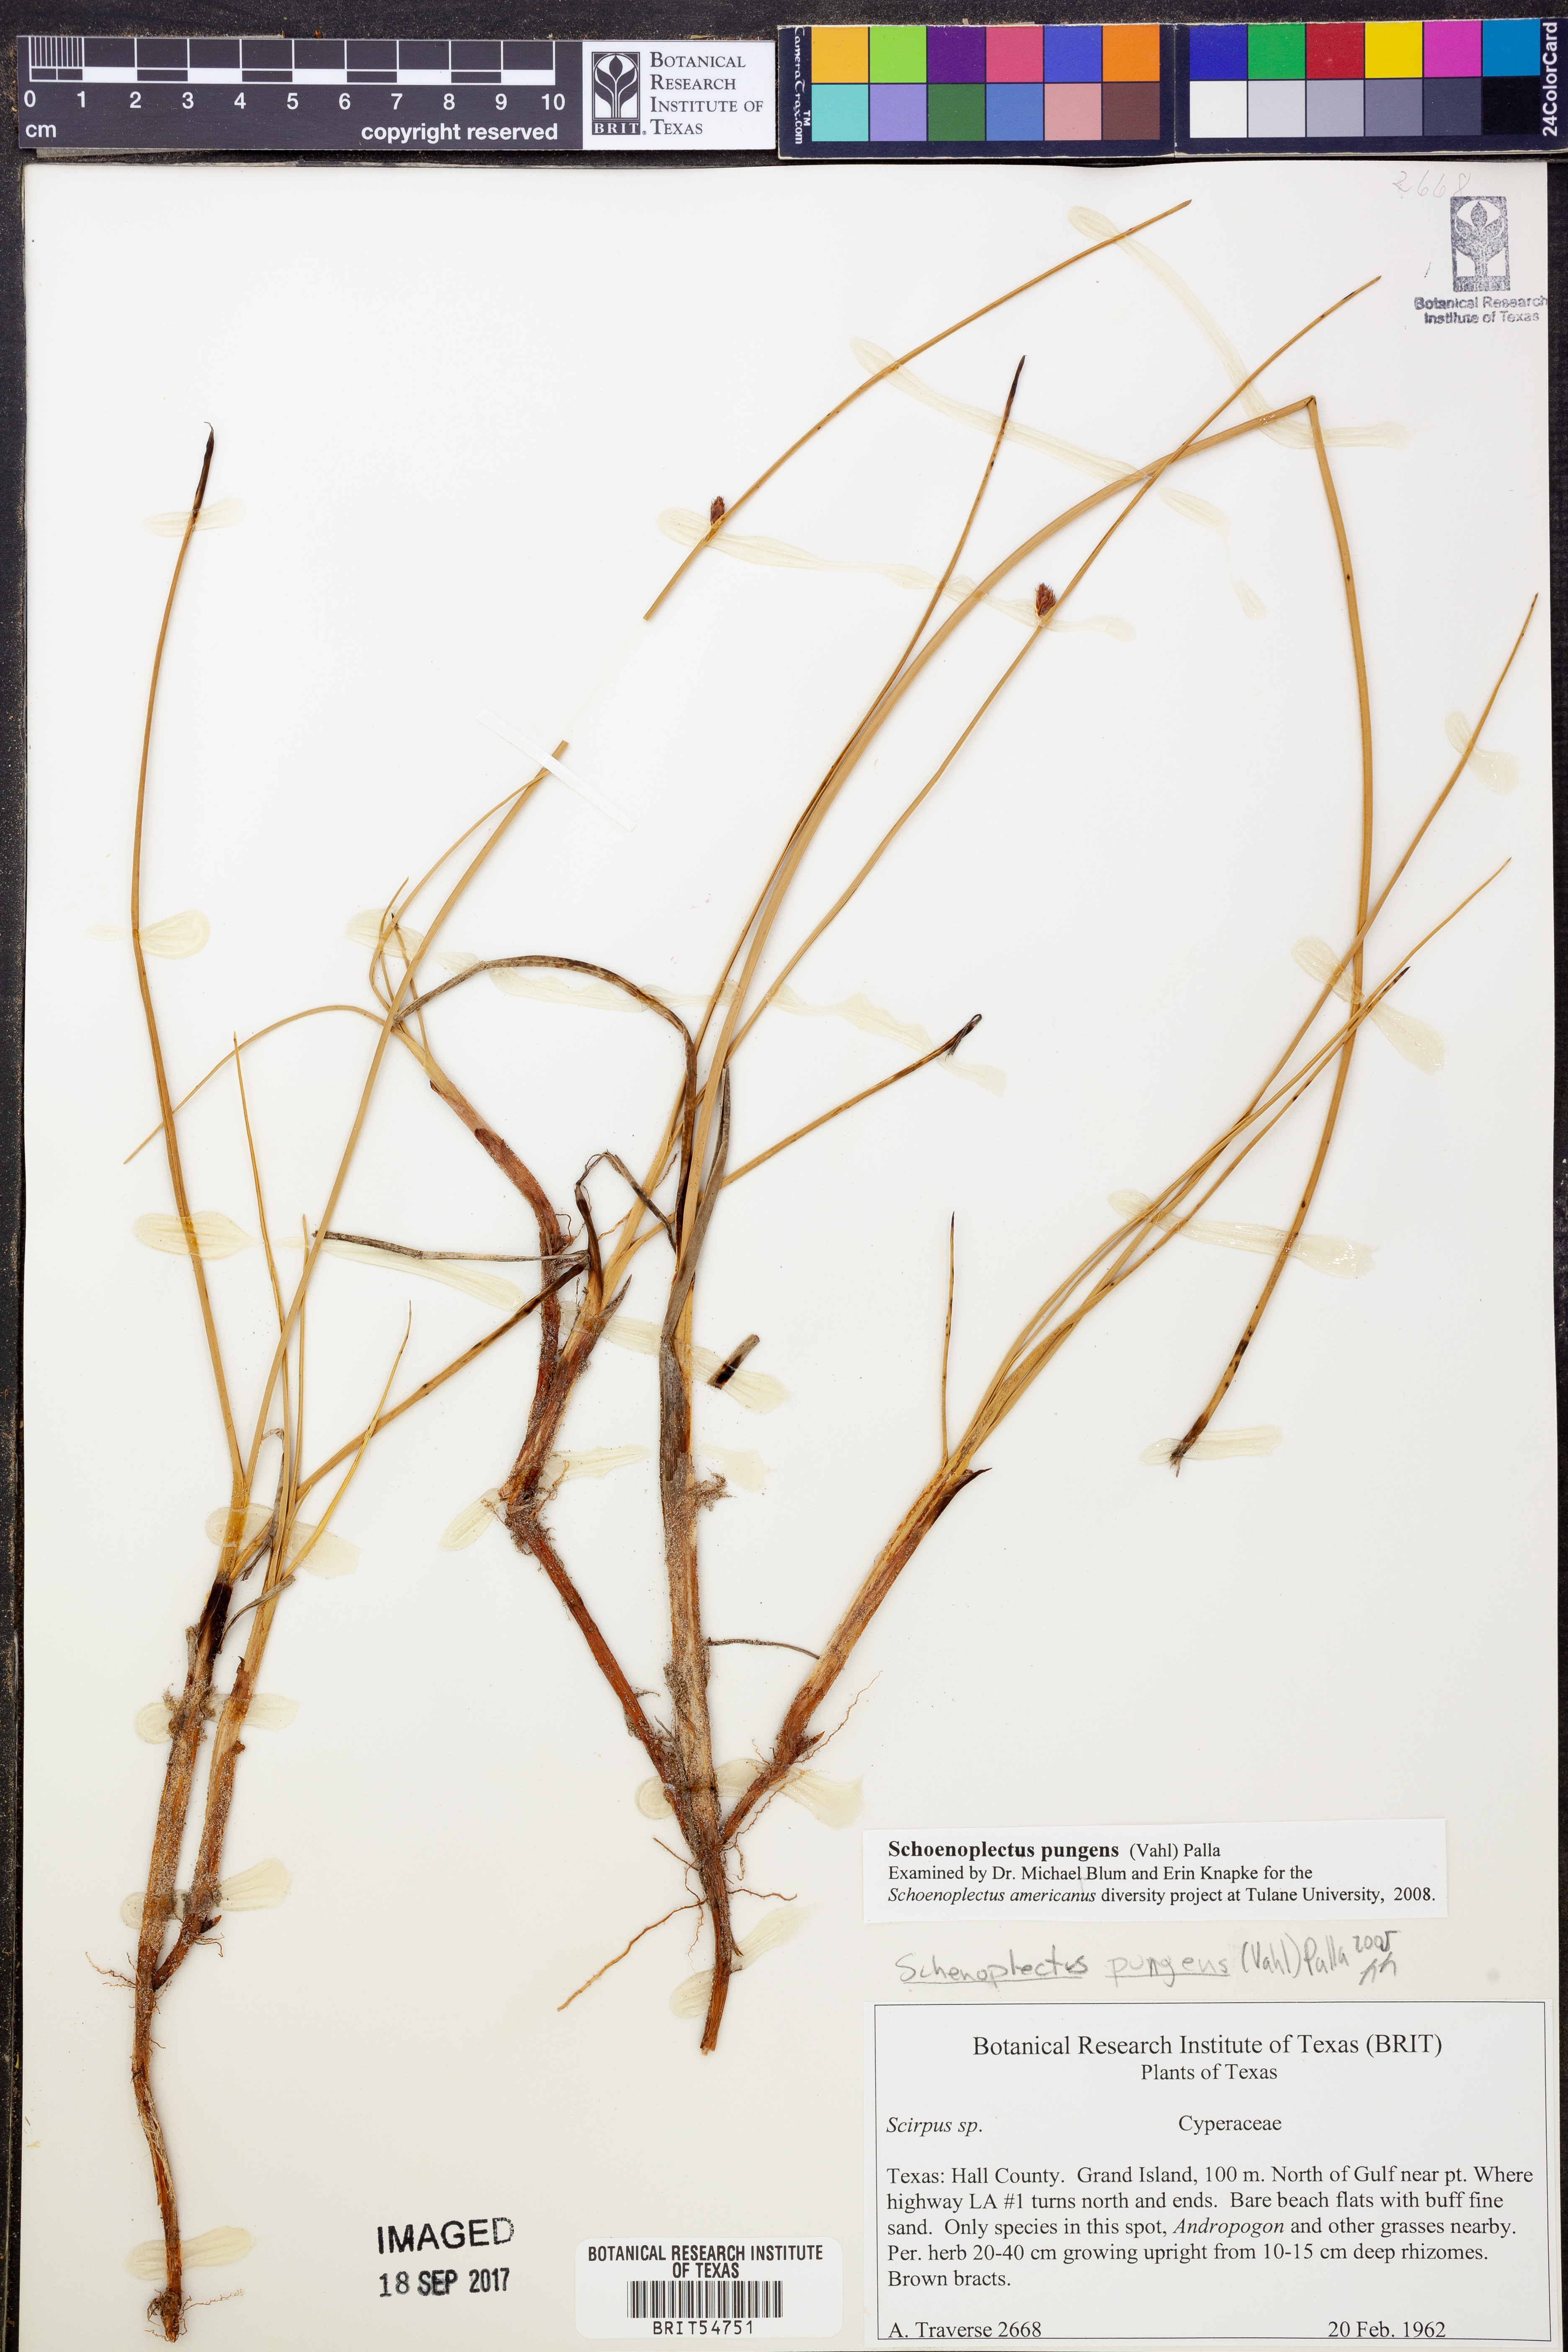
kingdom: Plantae
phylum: Tracheophyta
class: Liliopsida
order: Poales
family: Cyperaceae
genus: Schoenoplectus
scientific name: Schoenoplectus pungens
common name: Sharp club-rush
